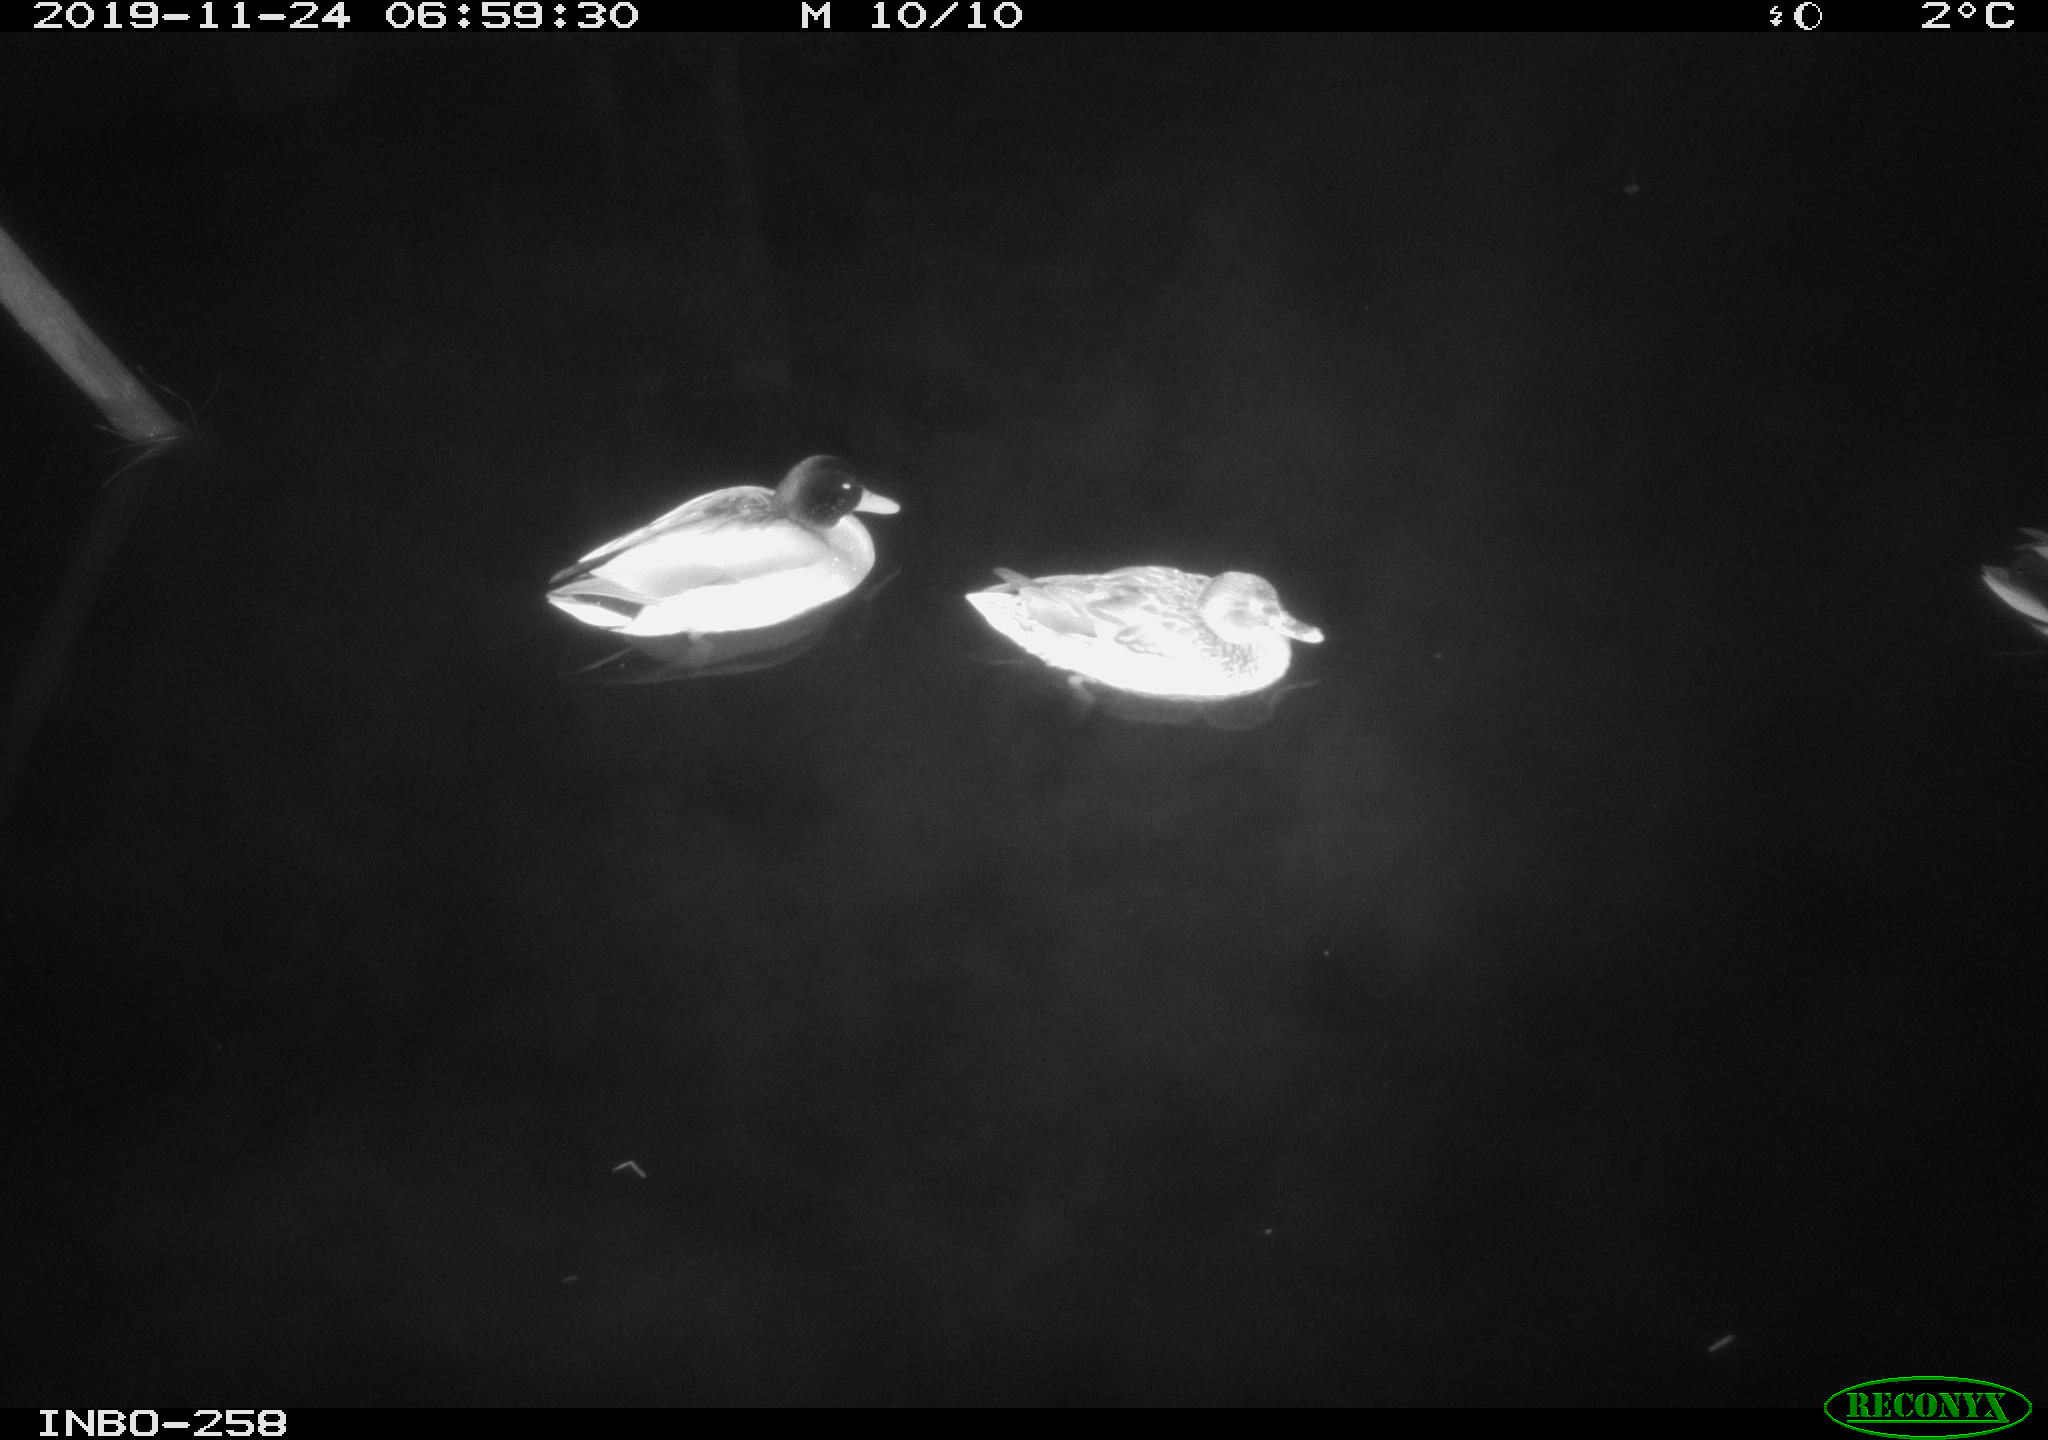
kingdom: Animalia
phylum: Chordata
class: Aves
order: Anseriformes
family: Anatidae
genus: Anas
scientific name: Anas platyrhynchos
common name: Mallard
